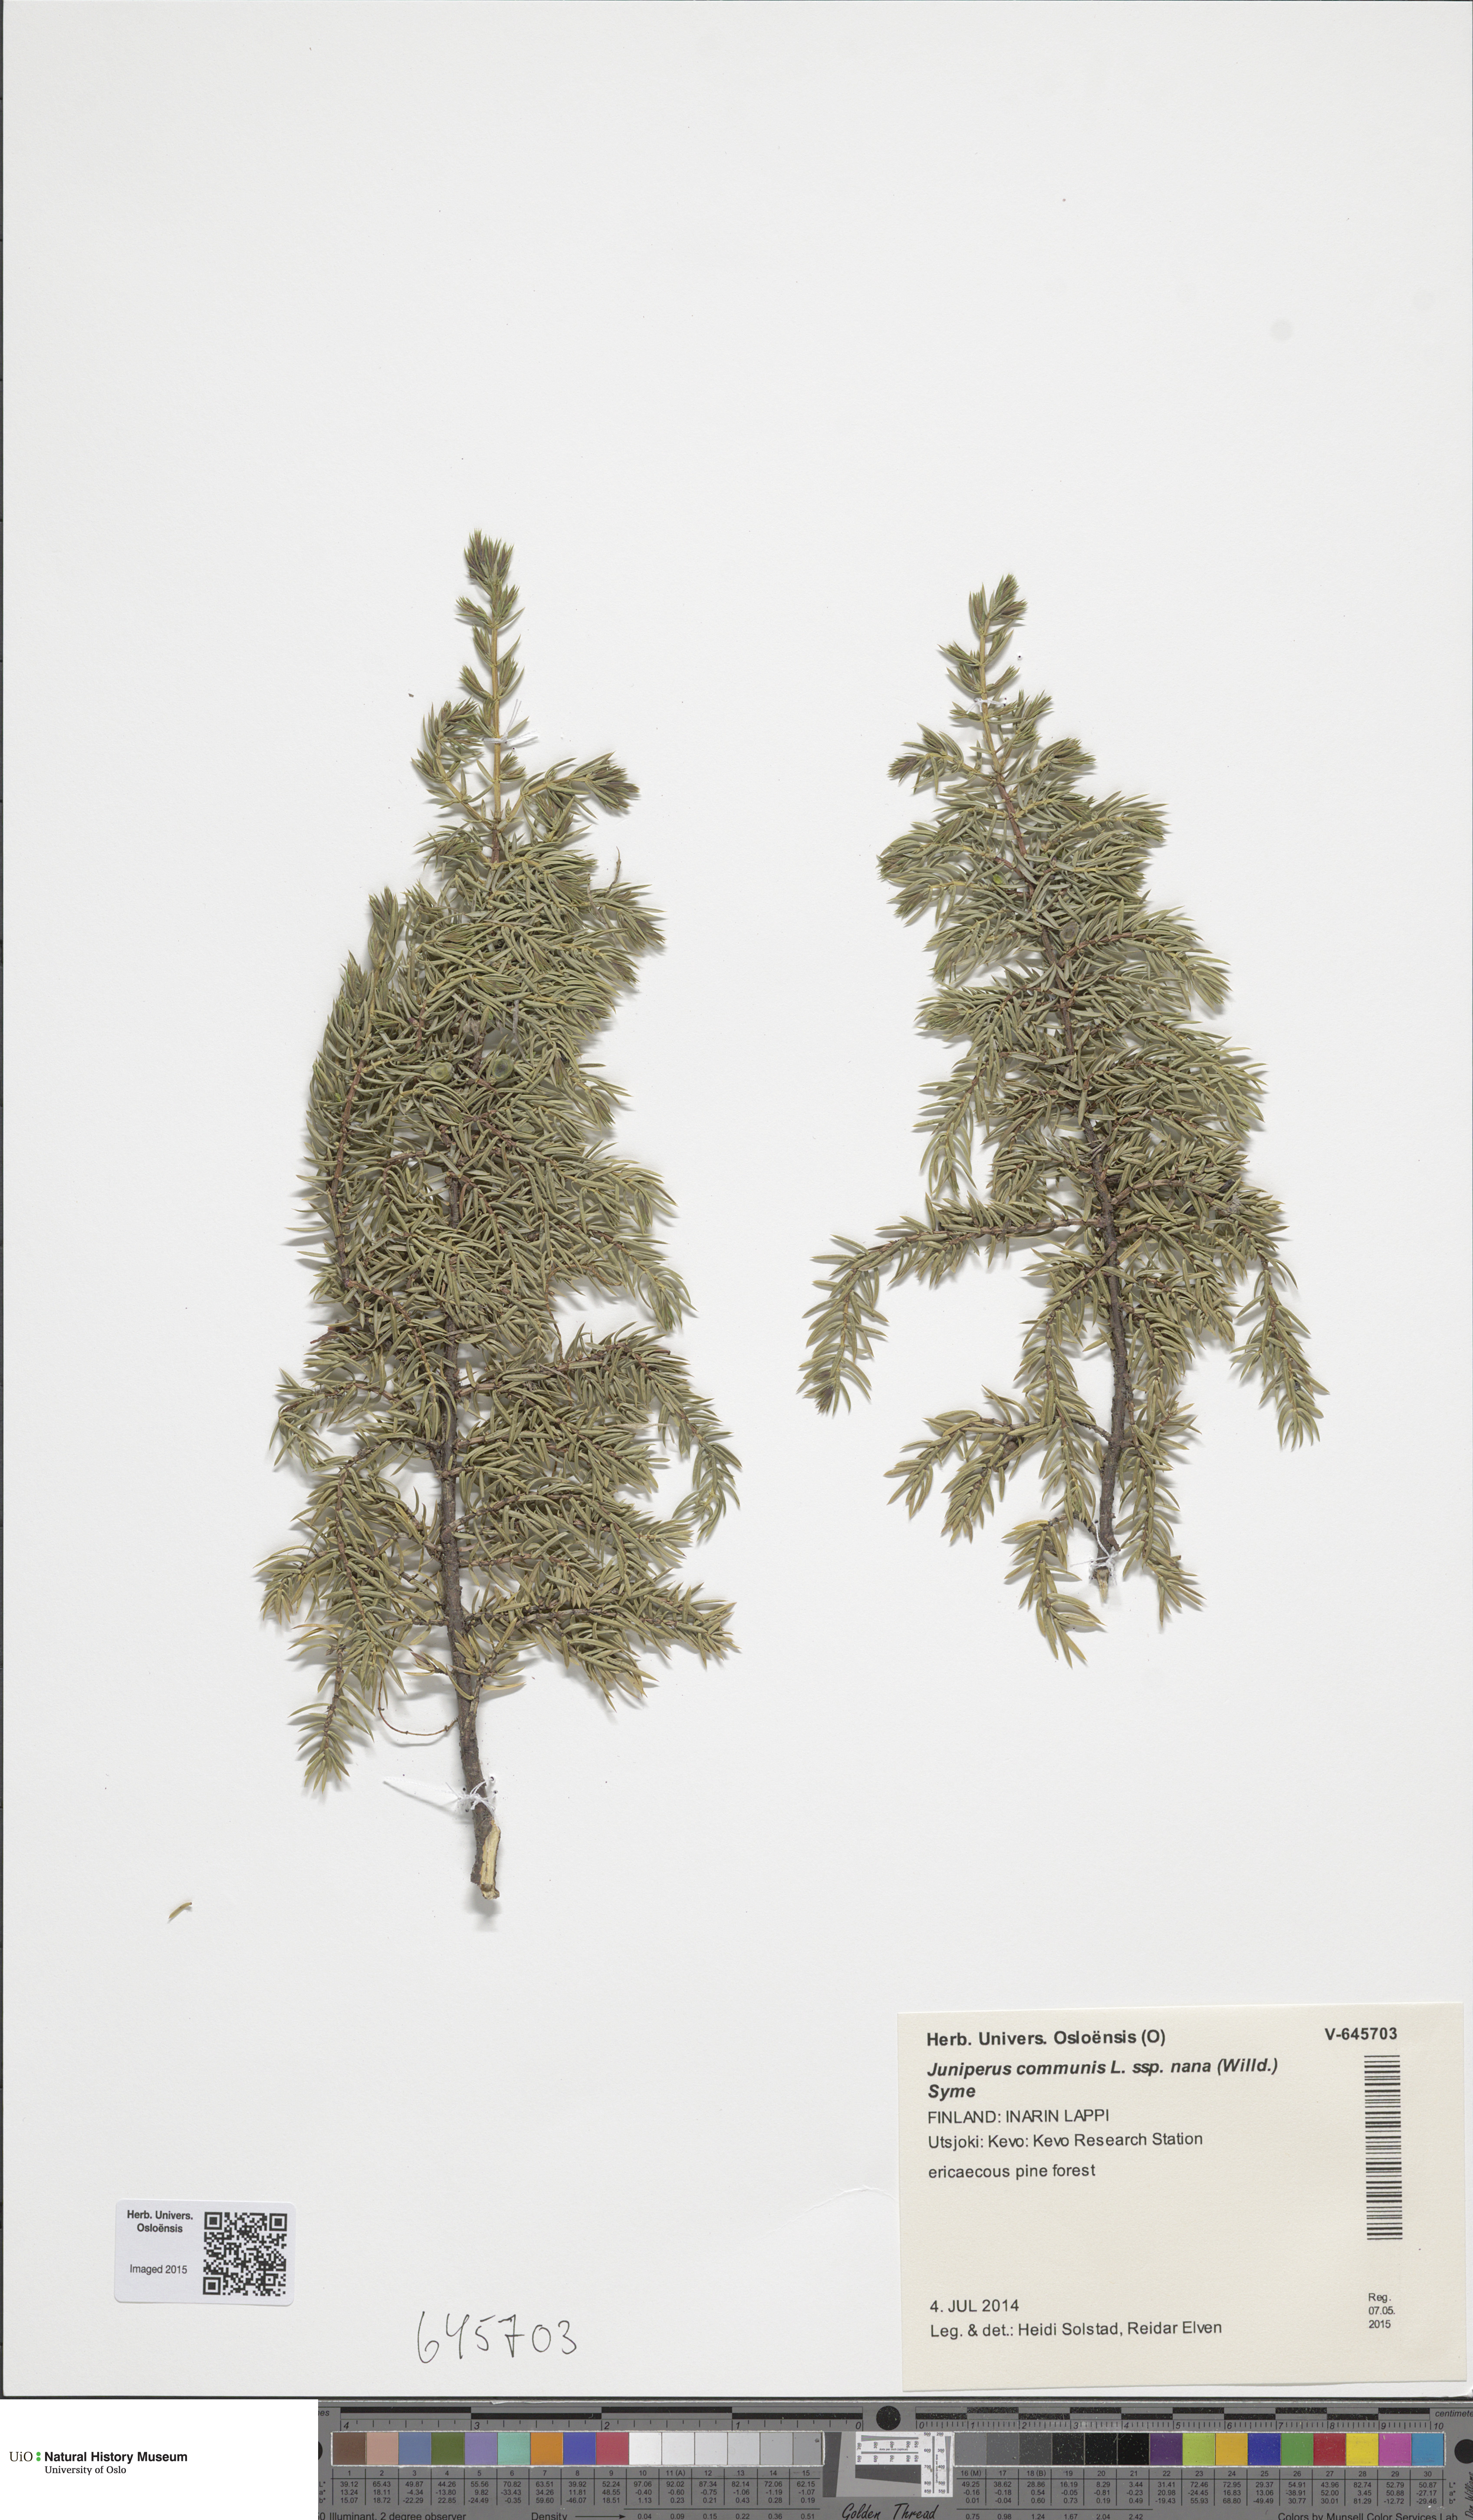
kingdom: Plantae
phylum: Tracheophyta
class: Pinopsida
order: Pinales
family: Cupressaceae
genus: Juniperus
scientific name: Juniperus communis
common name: Common juniper
